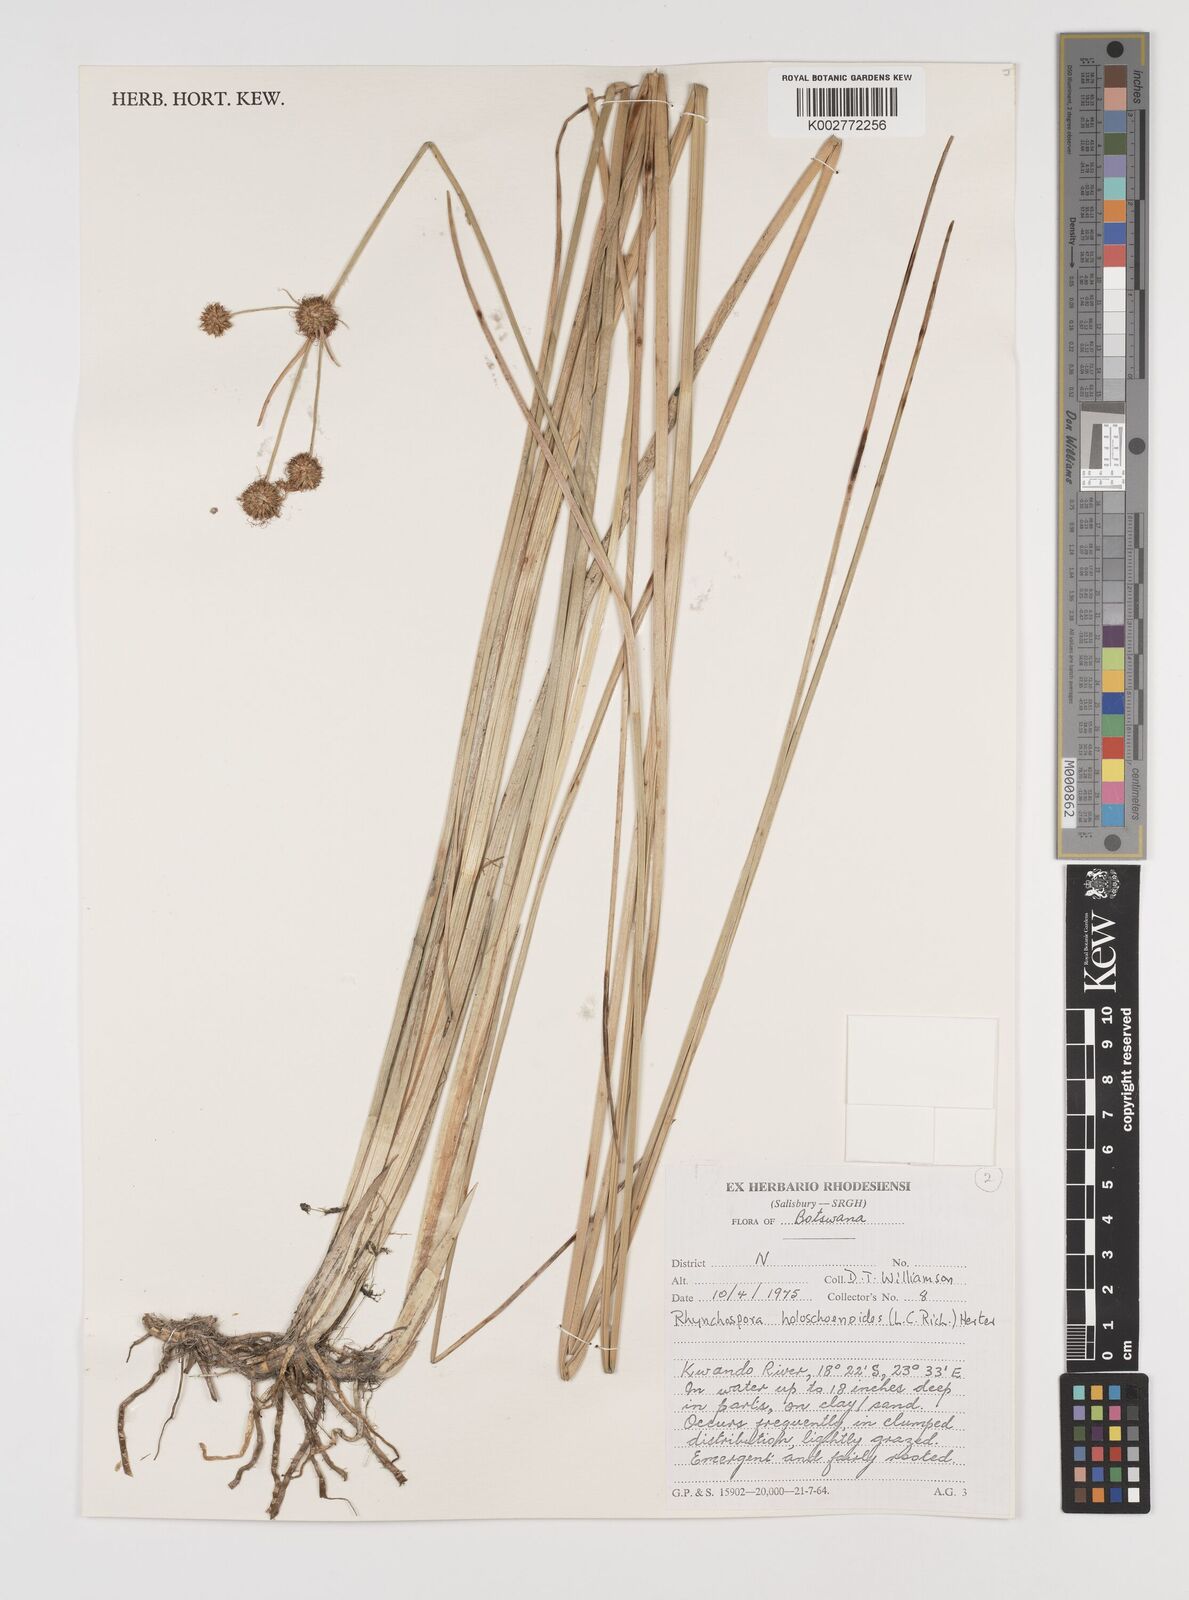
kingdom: Plantae
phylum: Tracheophyta
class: Liliopsida
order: Poales
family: Cyperaceae
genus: Rhynchospora
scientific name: Rhynchospora holoschoenoides
